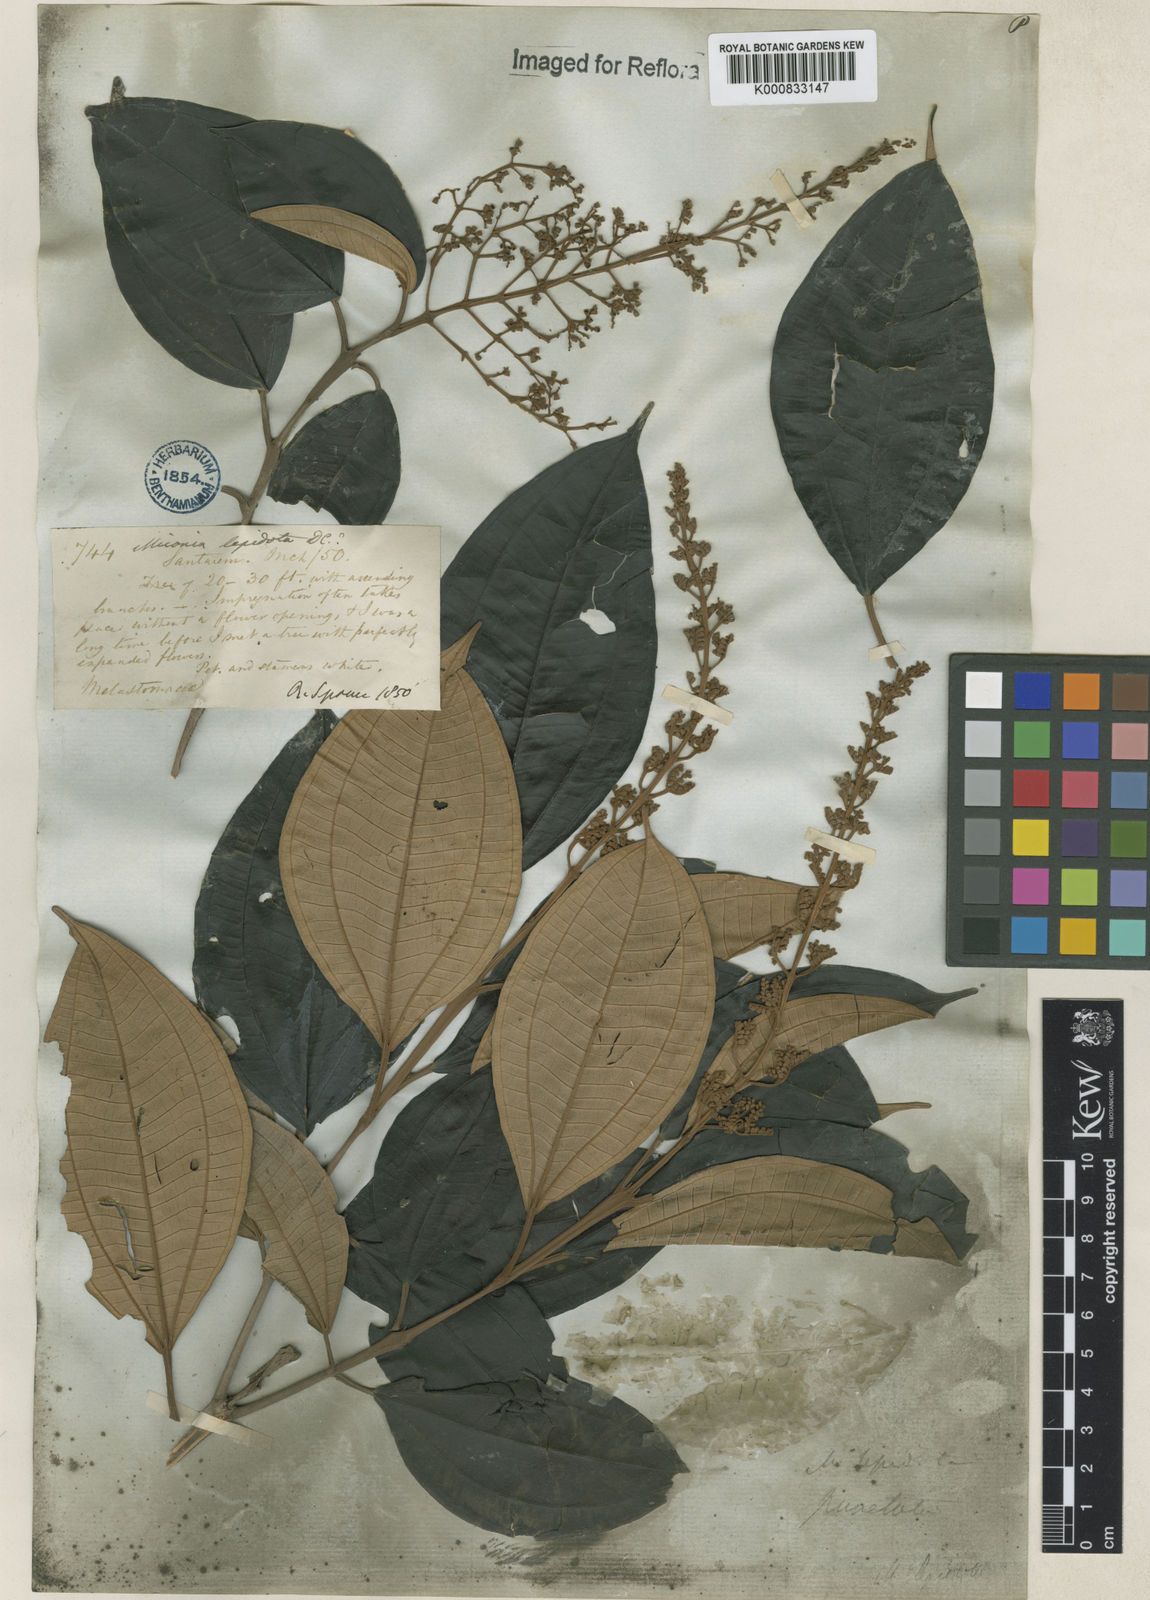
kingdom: Plantae
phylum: Tracheophyta
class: Magnoliopsida
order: Myrtales
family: Melastomataceae
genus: Miconia
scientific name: Miconia lepidota
